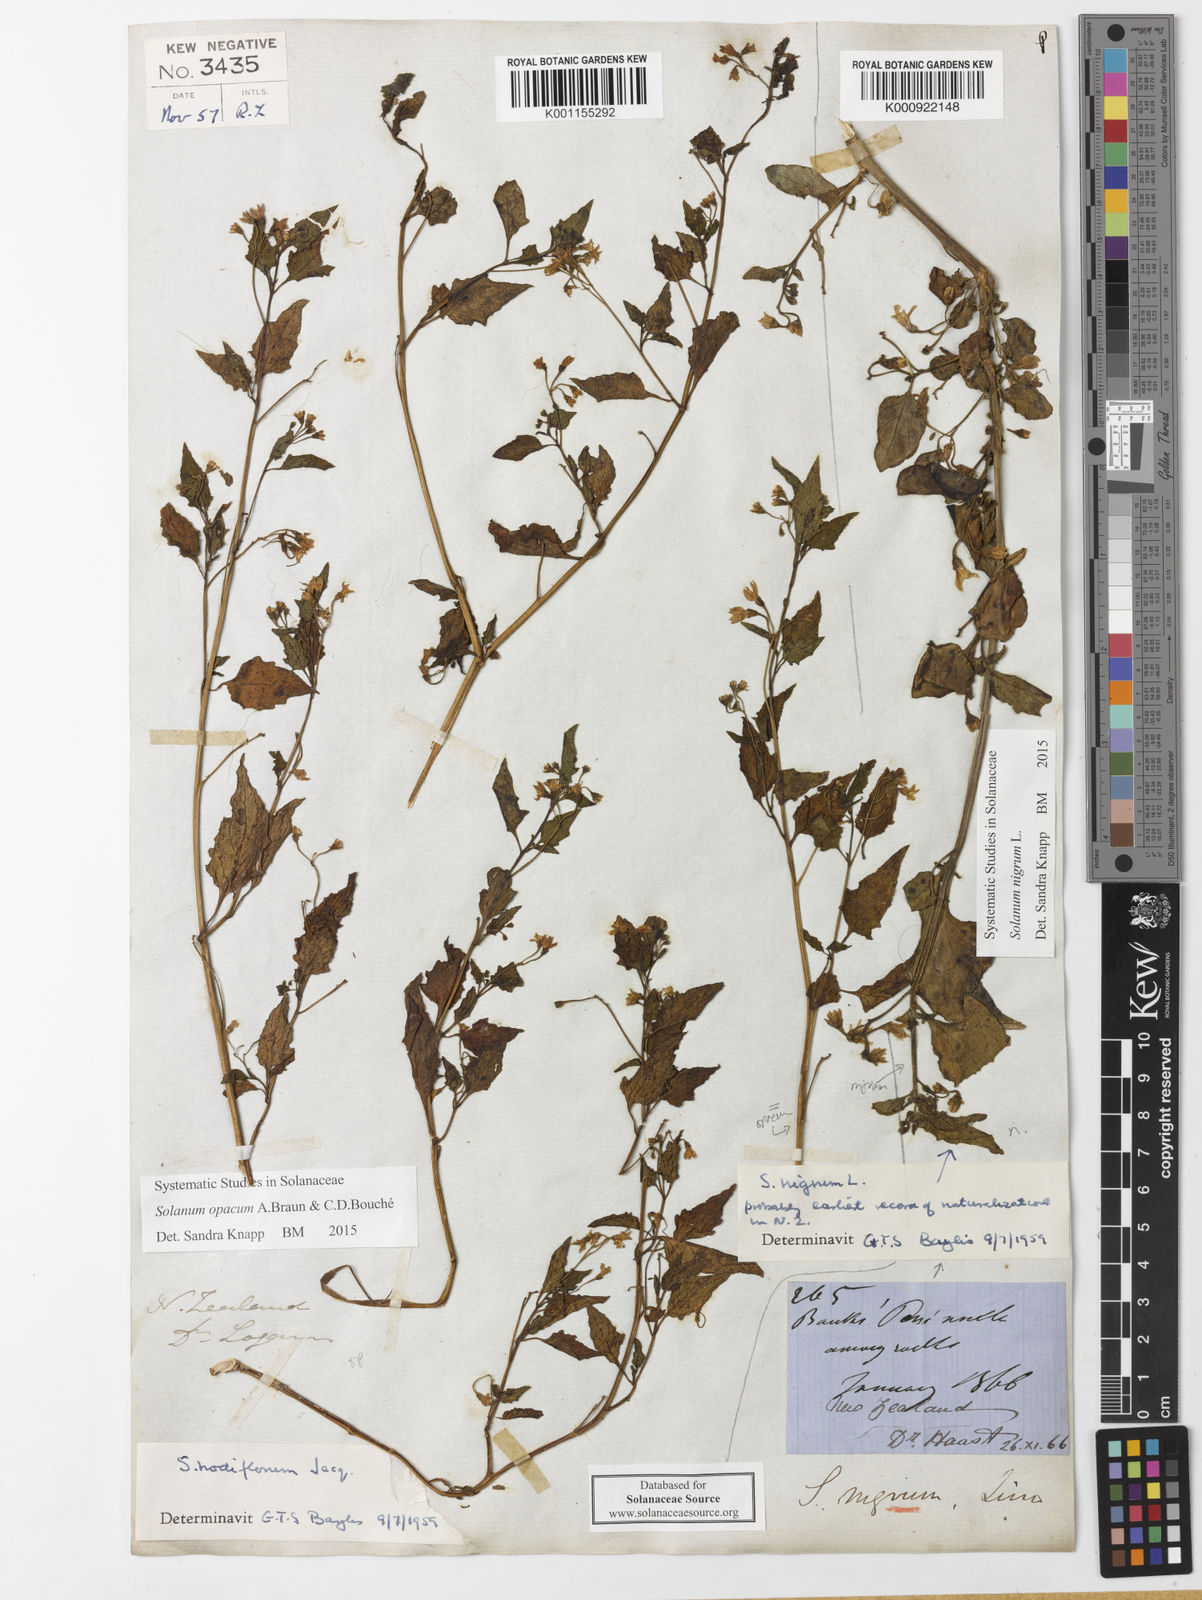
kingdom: Plantae
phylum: Tracheophyta
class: Magnoliopsida
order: Solanales
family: Solanaceae
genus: Solanum
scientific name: Solanum nigrum
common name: Black nightshade
